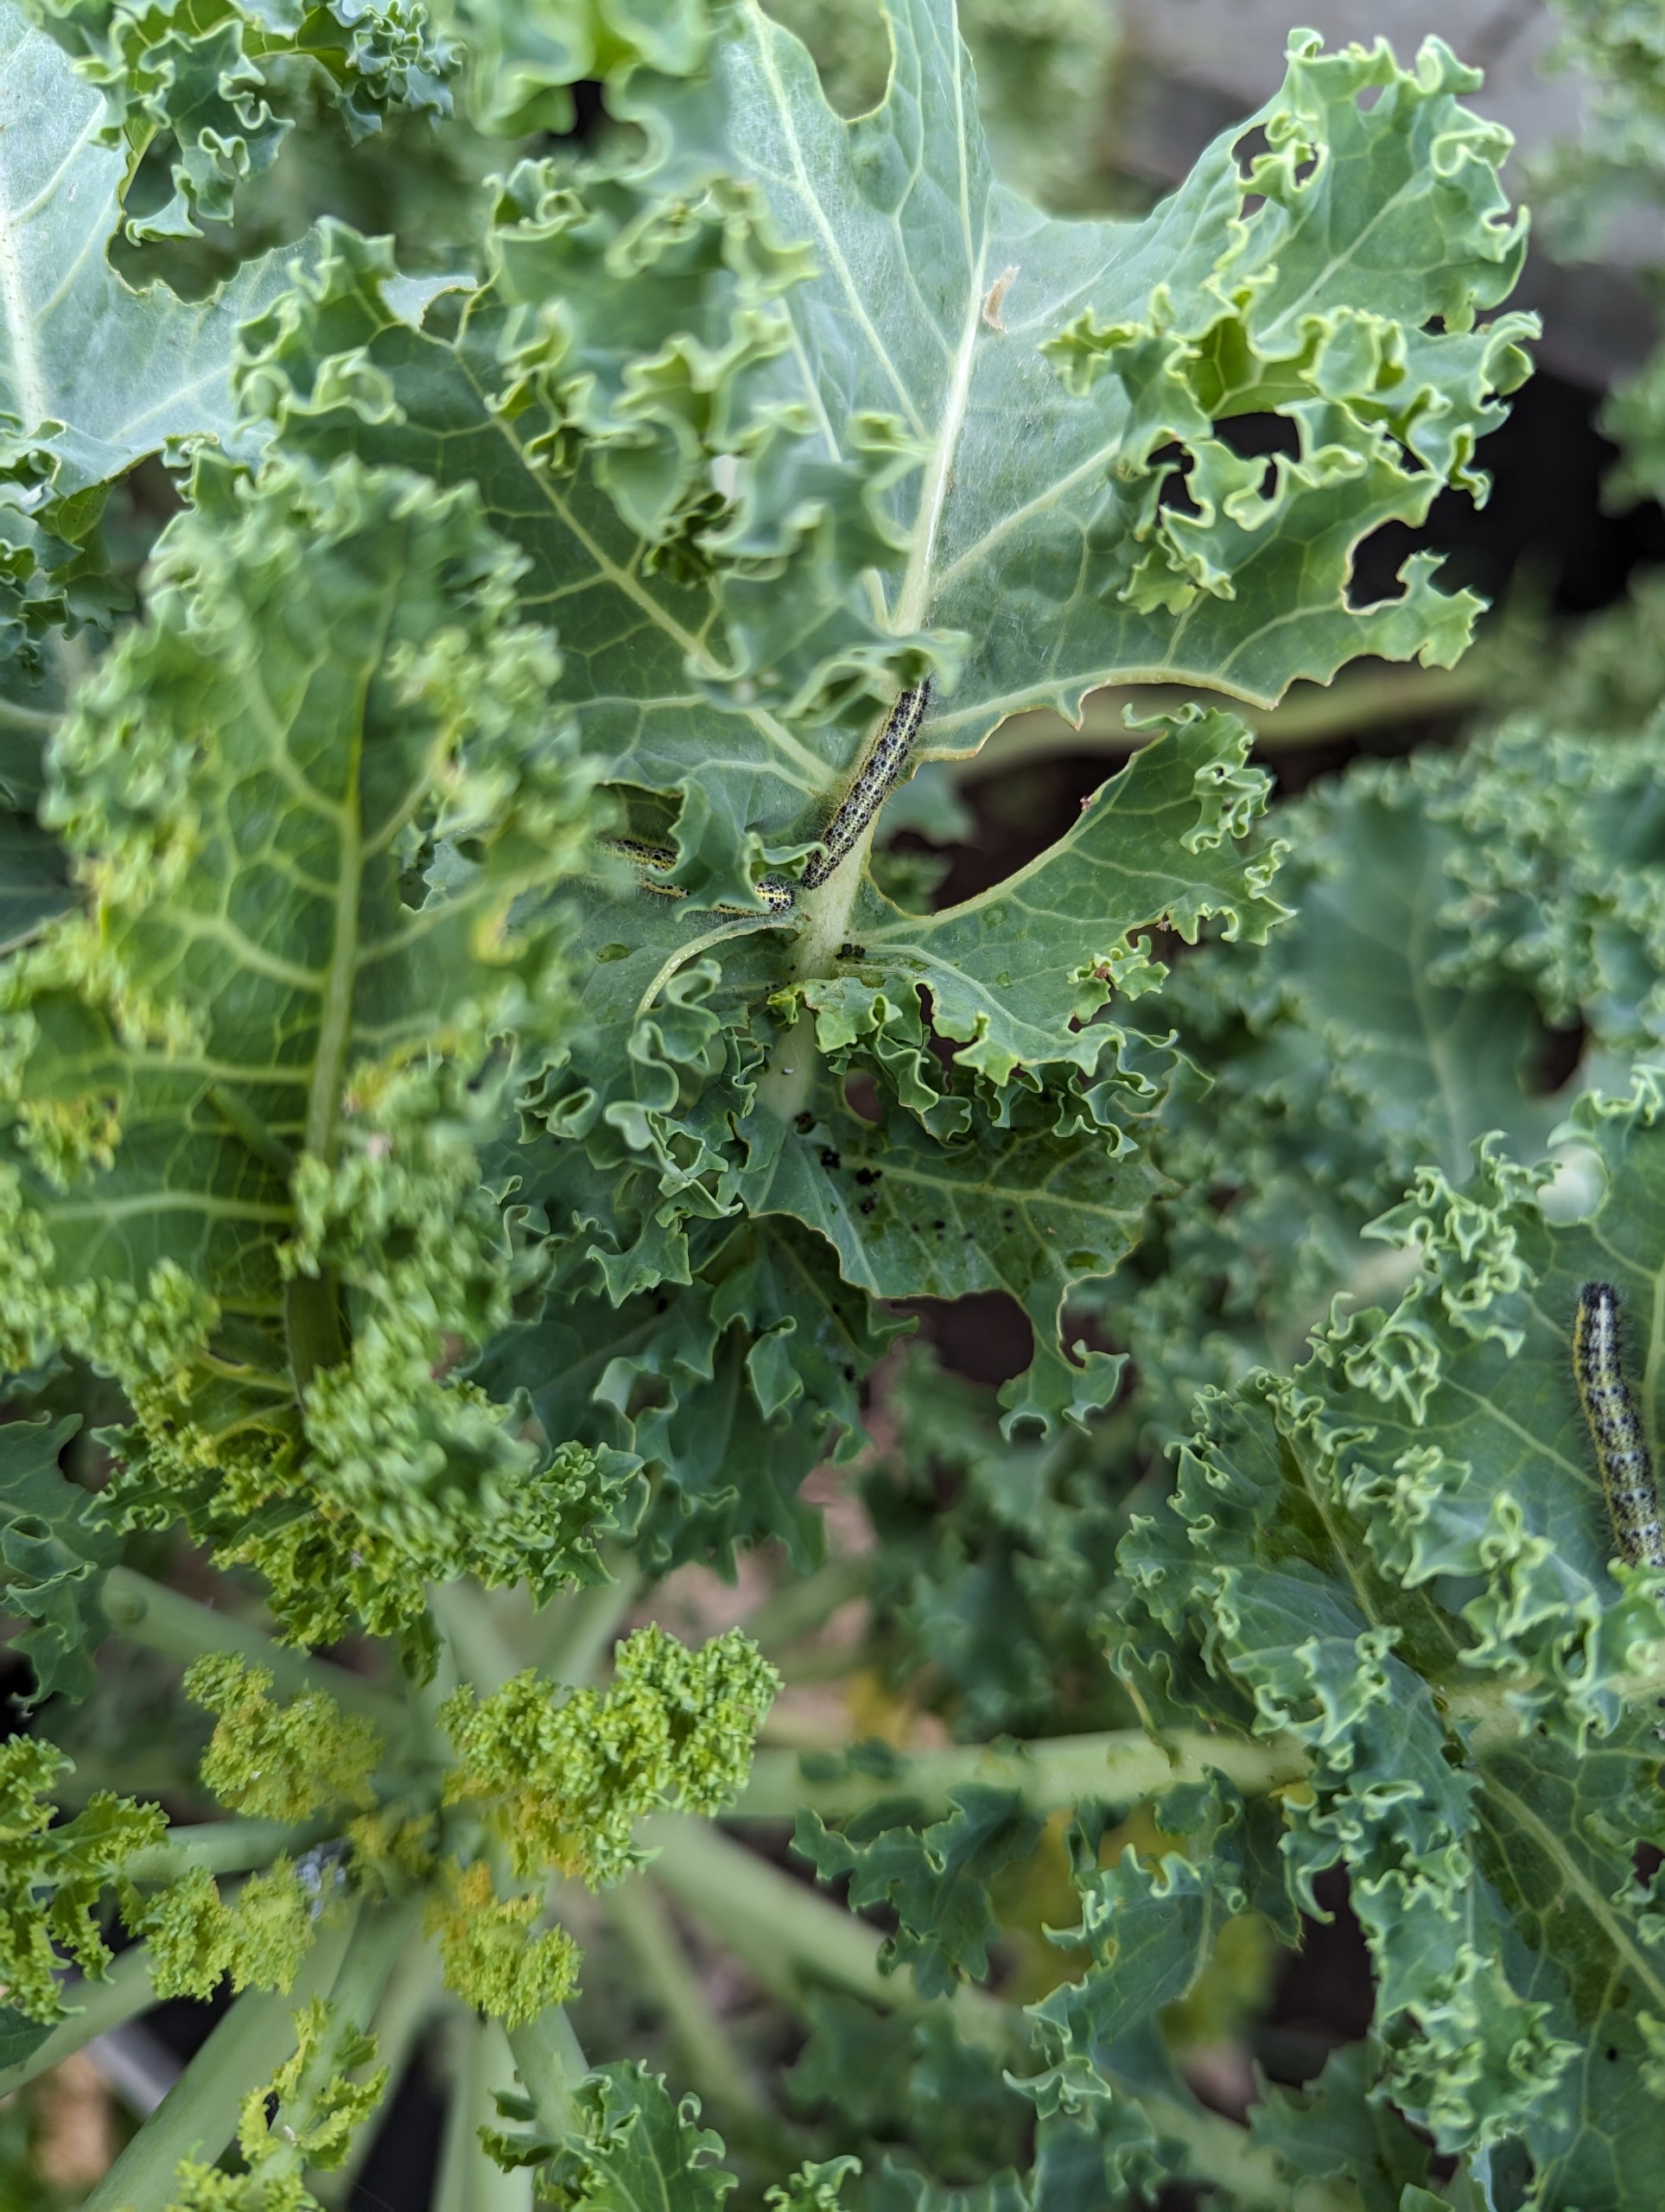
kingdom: Animalia
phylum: Arthropoda
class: Insecta
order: Lepidoptera
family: Pieridae
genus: Pieris
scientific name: Pieris brassicae
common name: Stor kålsommerfugl
